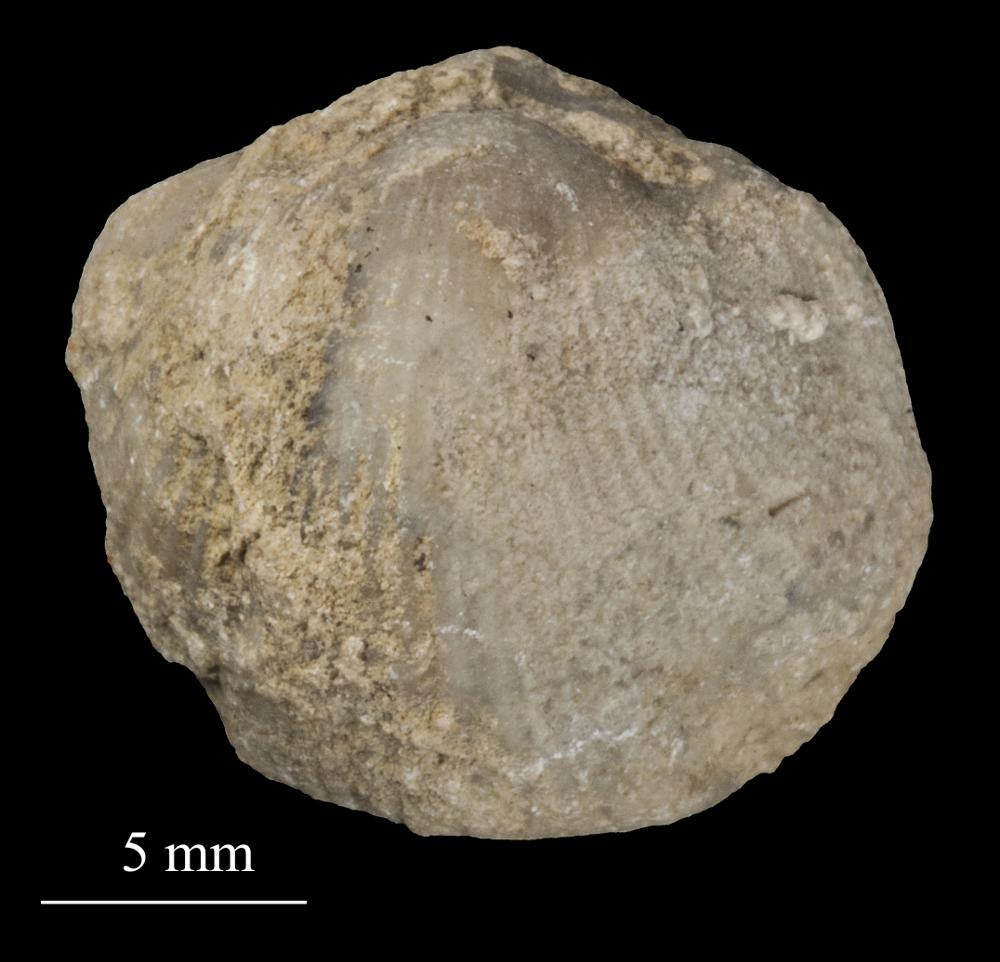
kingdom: Animalia
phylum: Brachiopoda
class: Rhynchonellata
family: Triplesiidae
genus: Cliftonia
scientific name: Cliftonia
